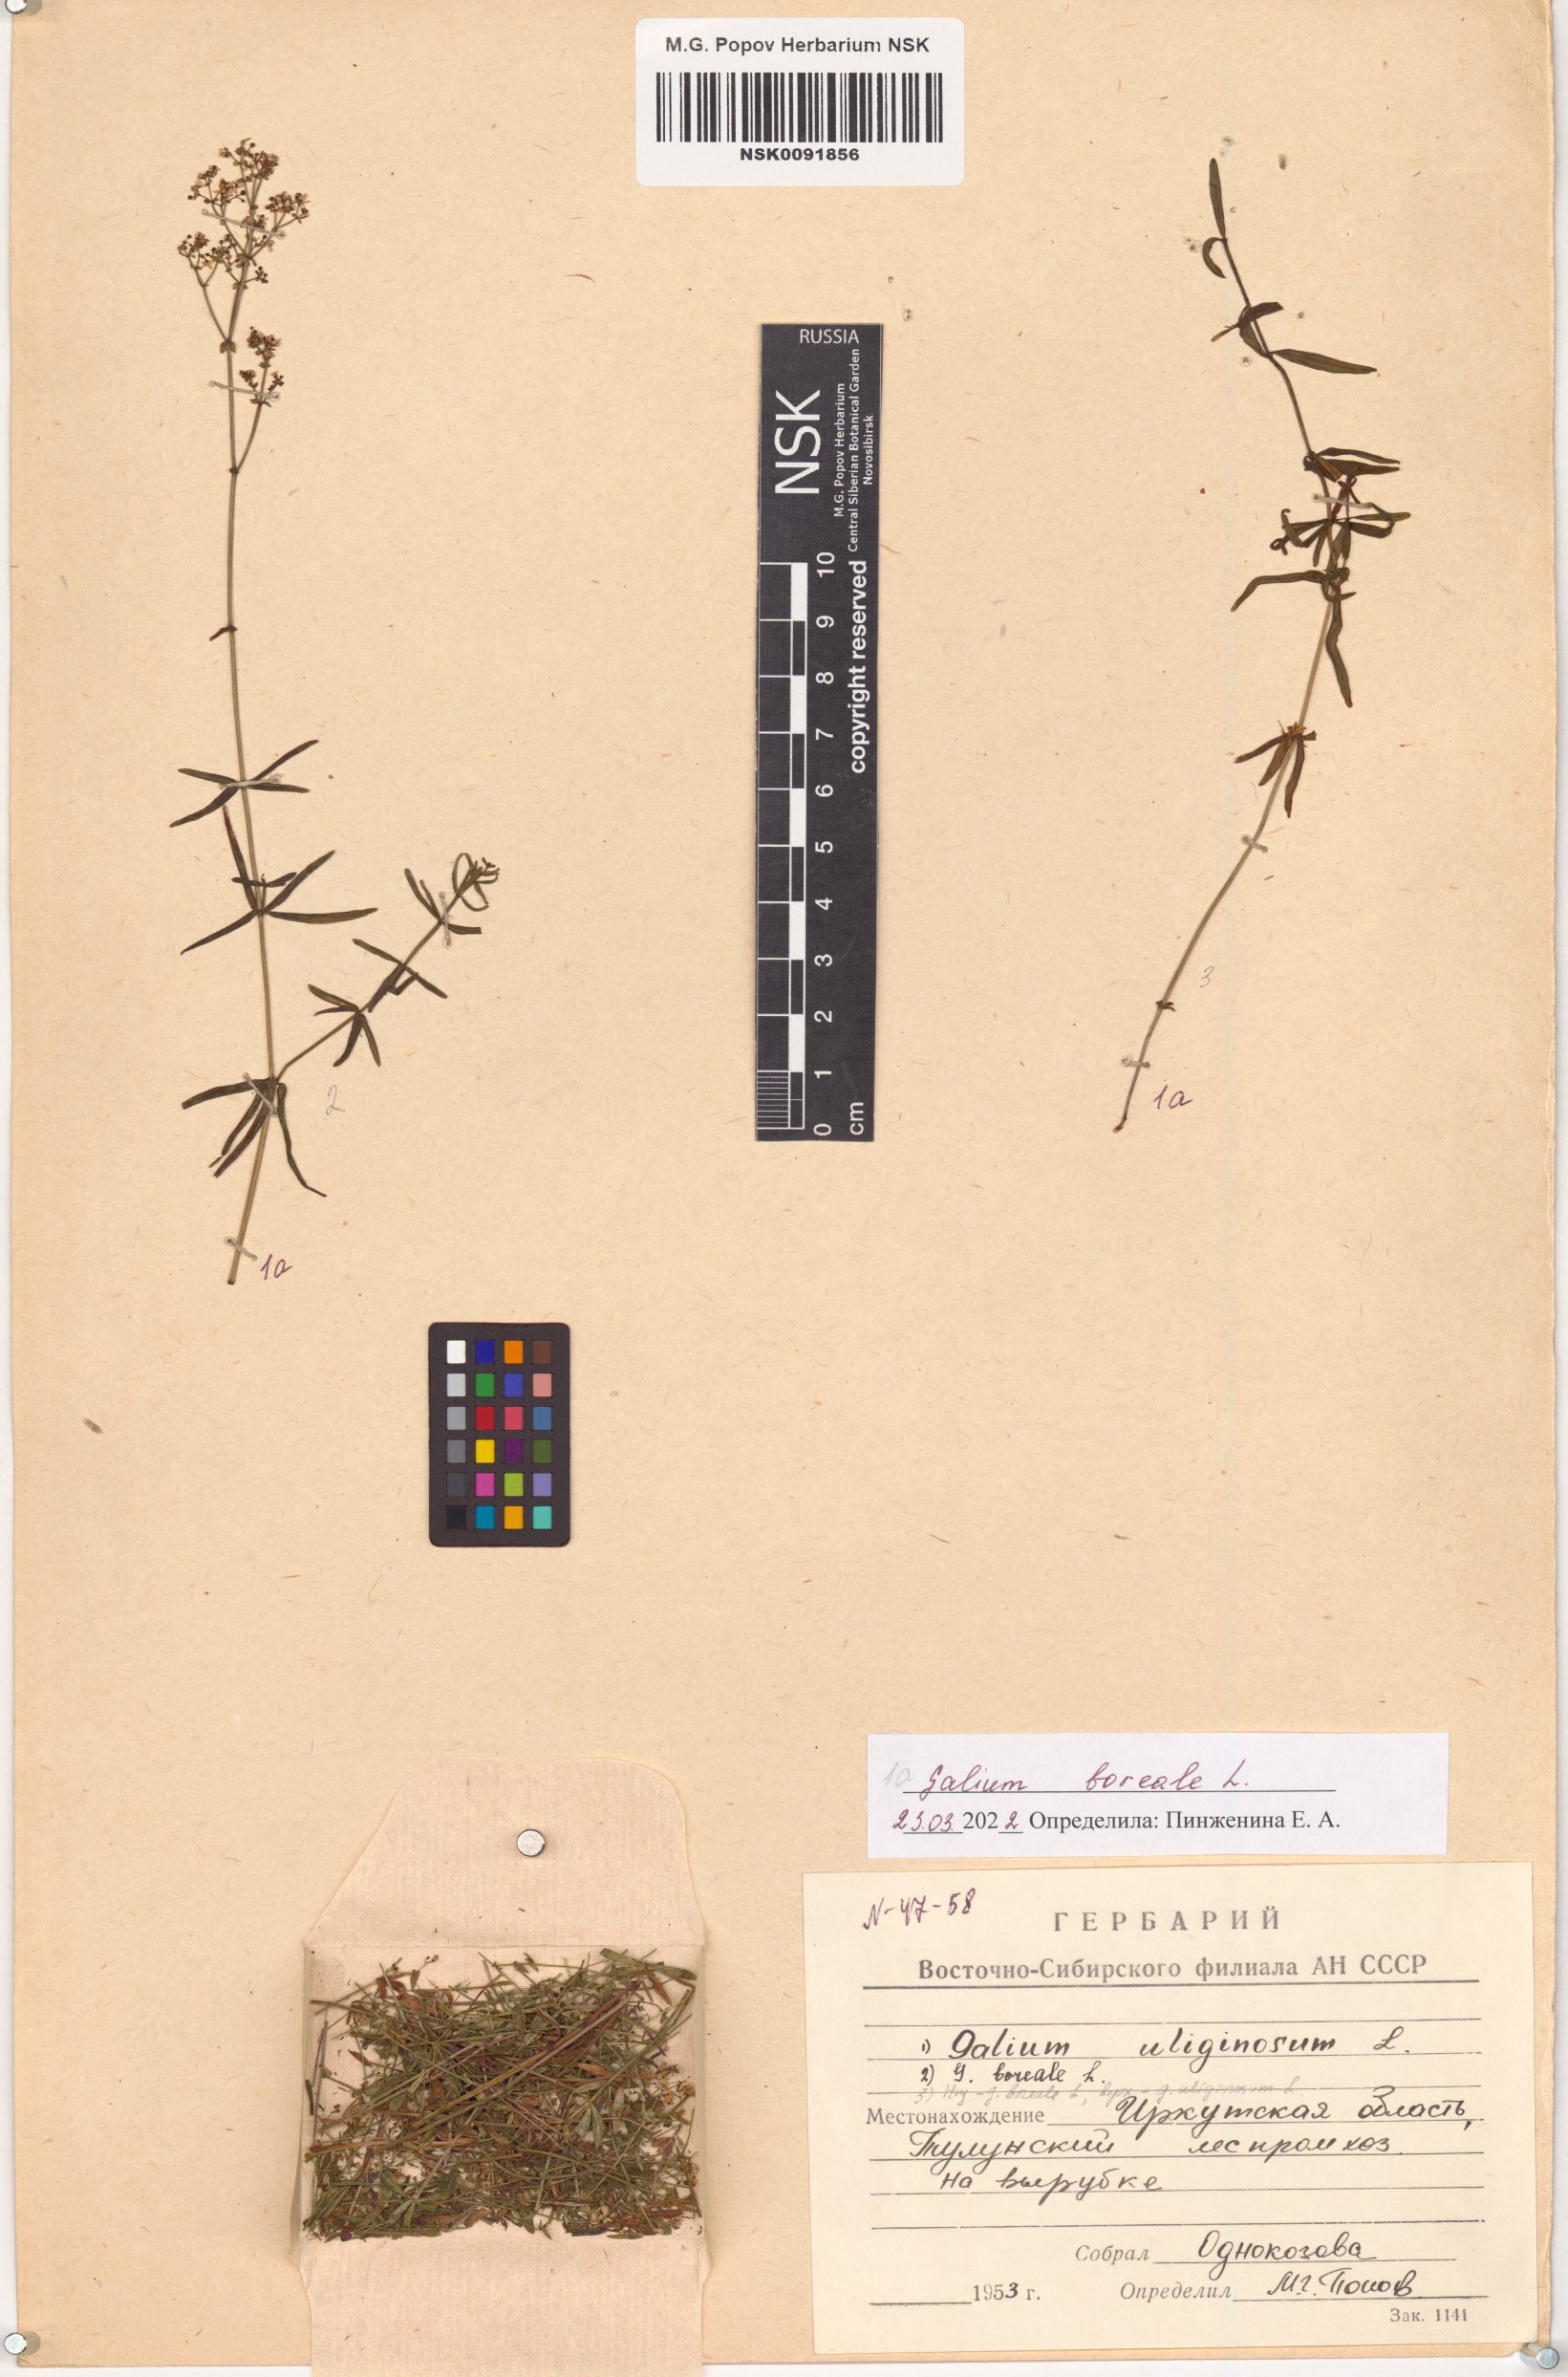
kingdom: Plantae
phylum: Tracheophyta
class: Magnoliopsida
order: Gentianales
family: Rubiaceae
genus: Galium
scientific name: Galium boreale
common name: Northern bedstraw
